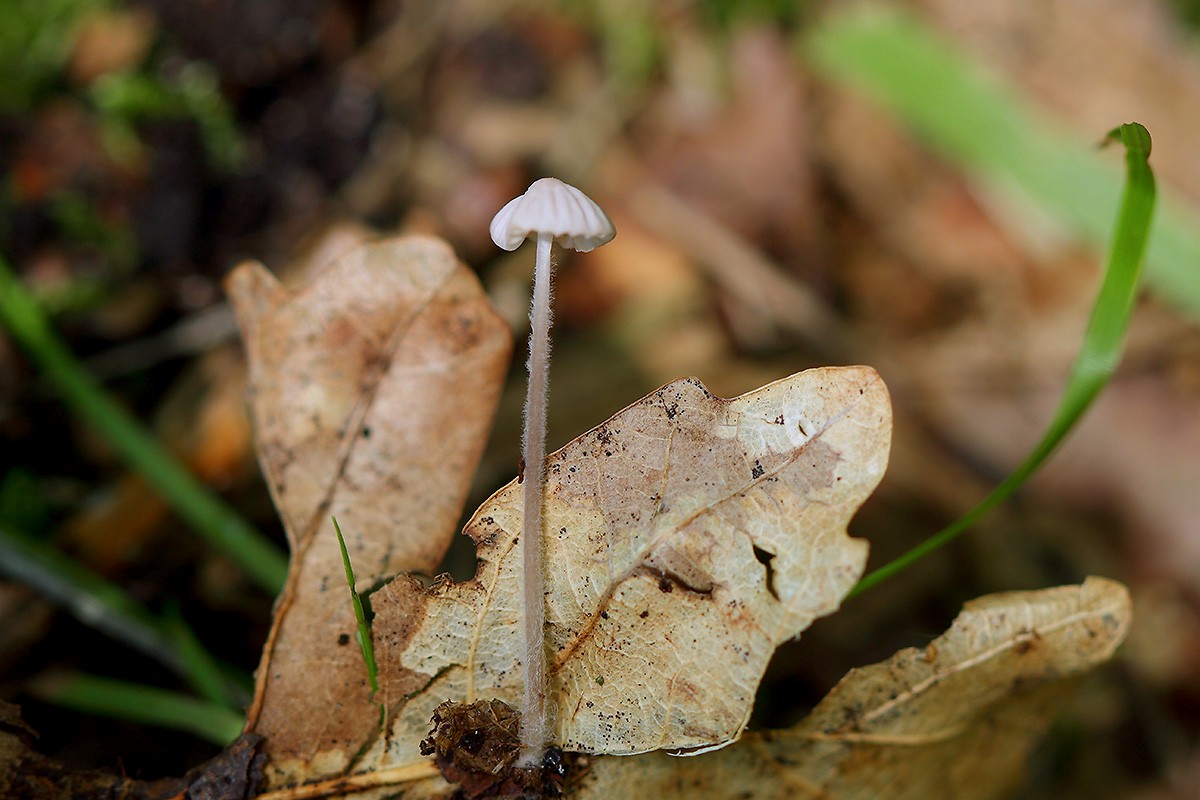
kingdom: Fungi
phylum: Basidiomycota
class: Agaricomycetes
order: Agaricales
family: Mycenaceae
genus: Mycena
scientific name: Mycena albidolilacea
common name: lyslilla huesvamp
